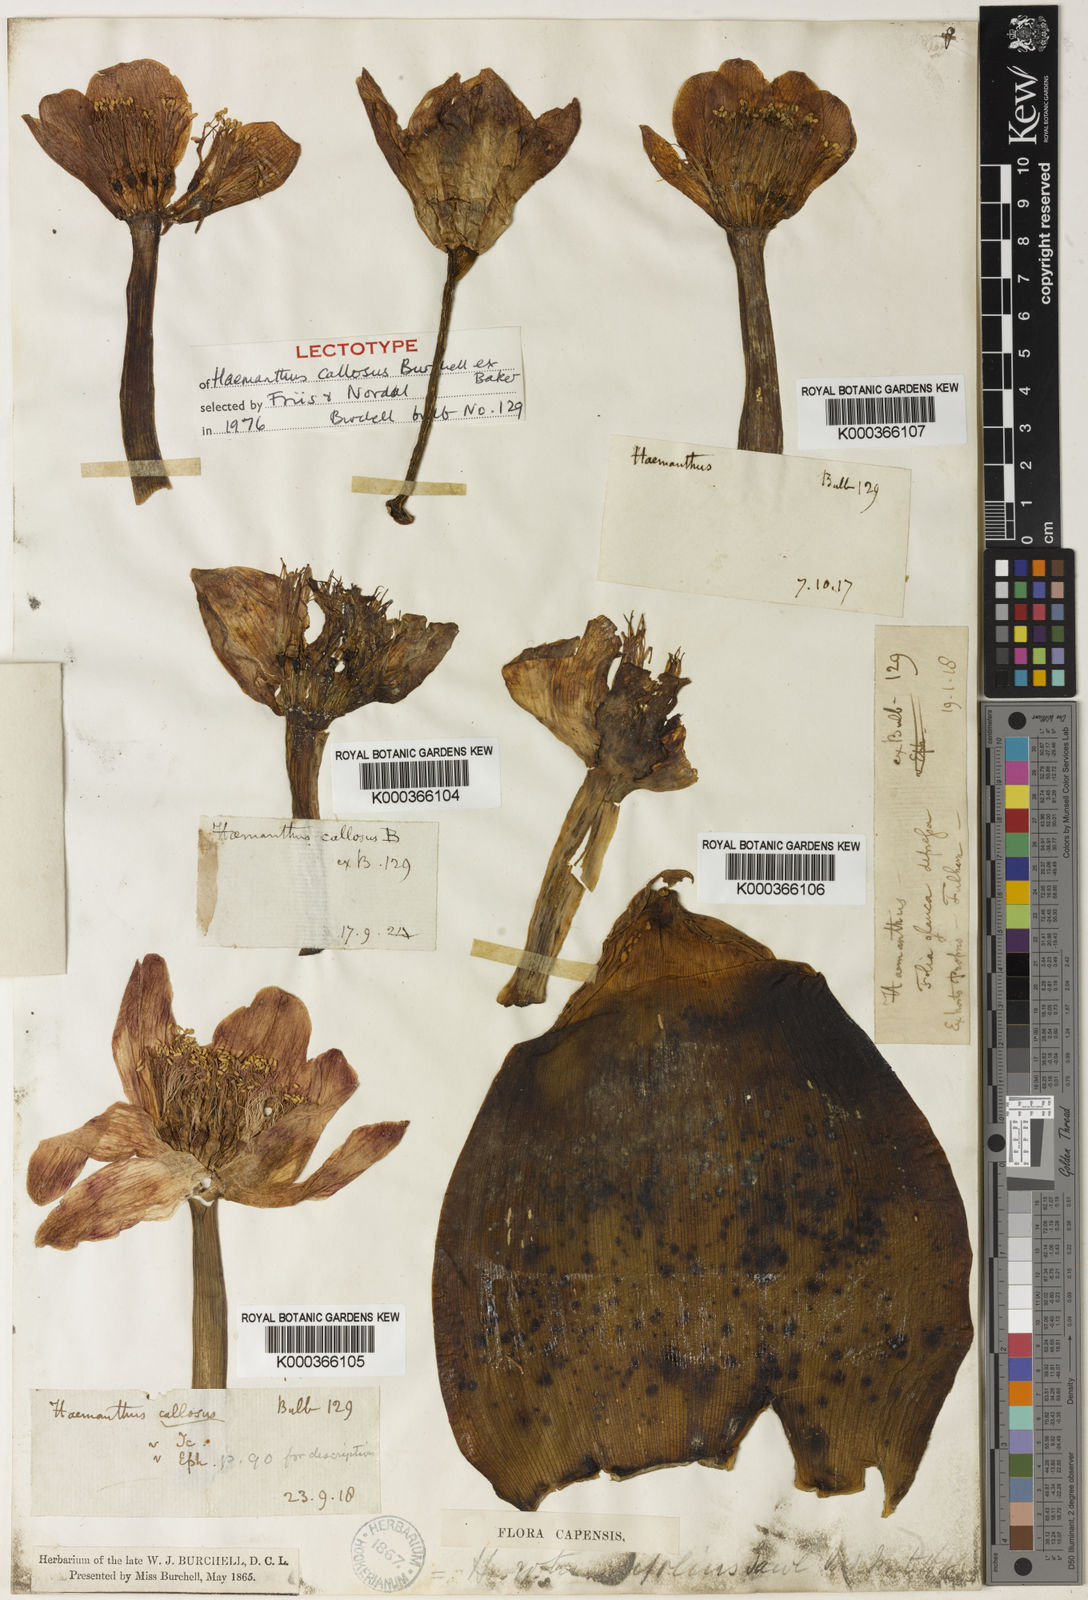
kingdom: Plantae
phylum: Tracheophyta
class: Liliopsida
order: Asparagales
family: Amaryllidaceae
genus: Haemanthus
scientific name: Haemanthus coccineus
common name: Cape-tulip
